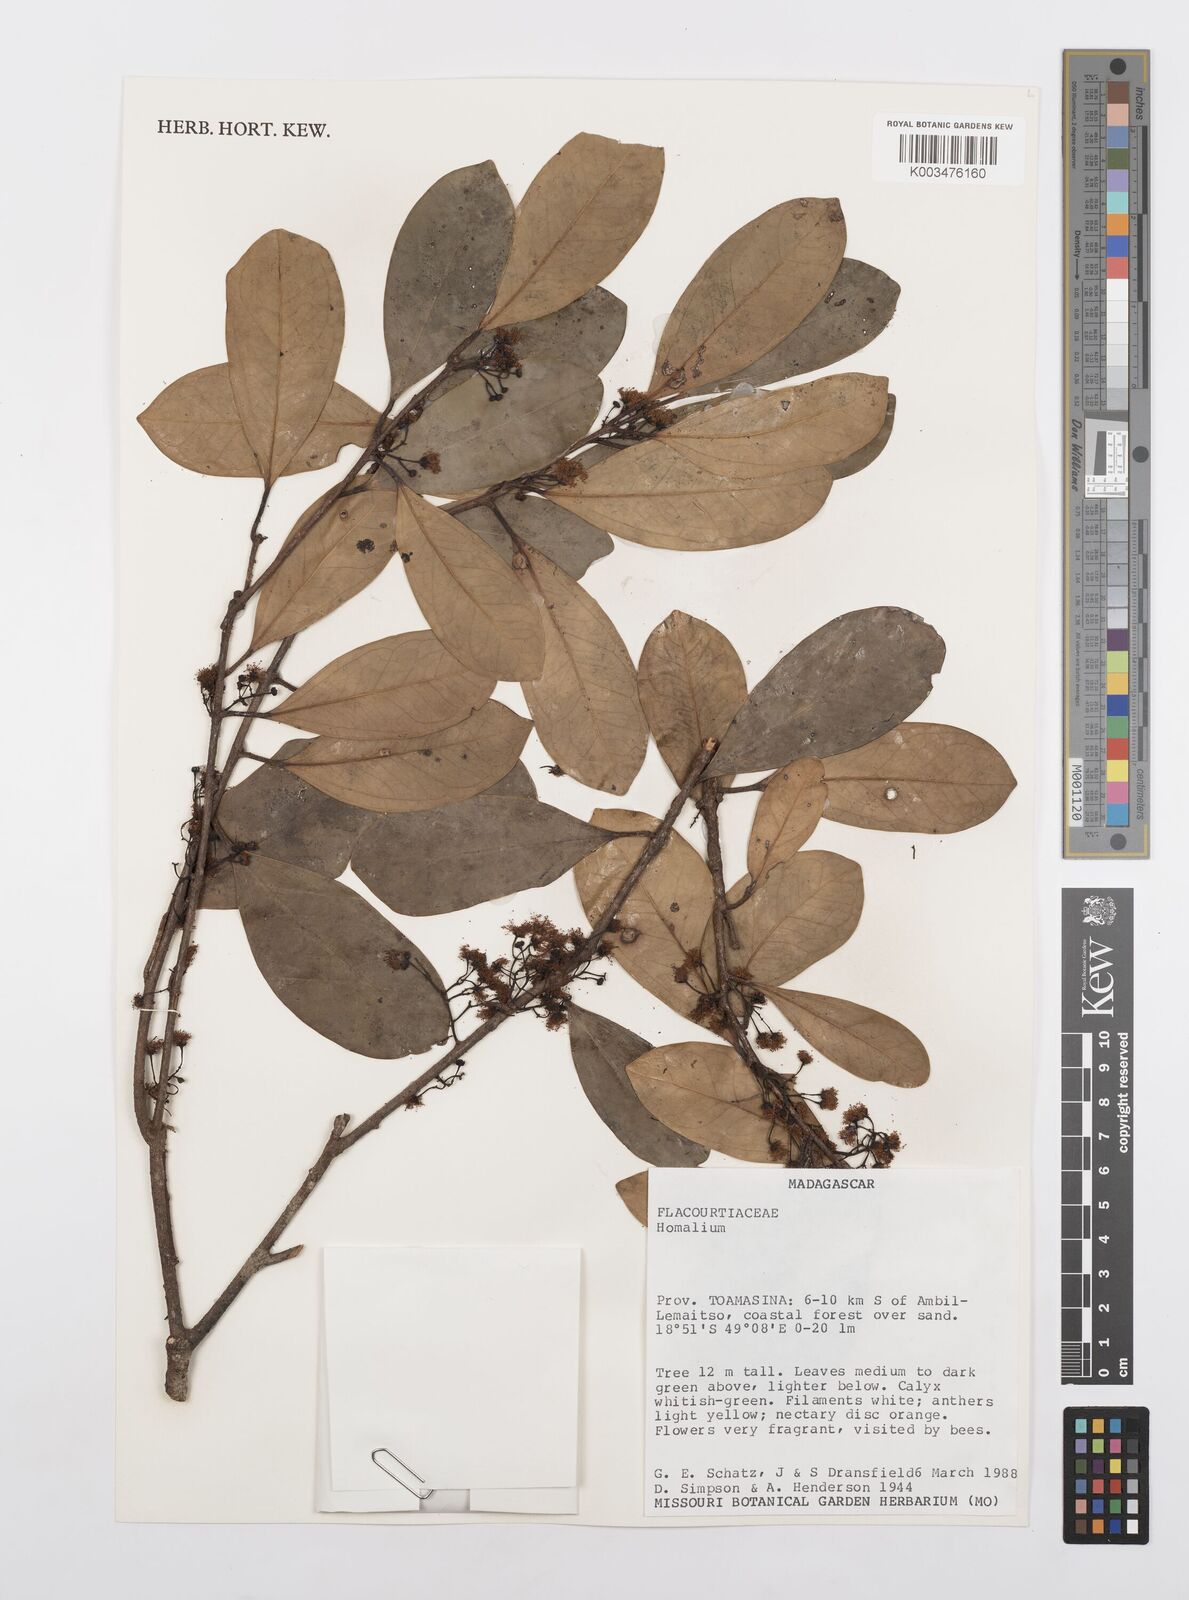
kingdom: Plantae
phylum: Tracheophyta
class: Magnoliopsida
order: Malpighiales
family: Salicaceae
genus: Homalium
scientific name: Homalium
